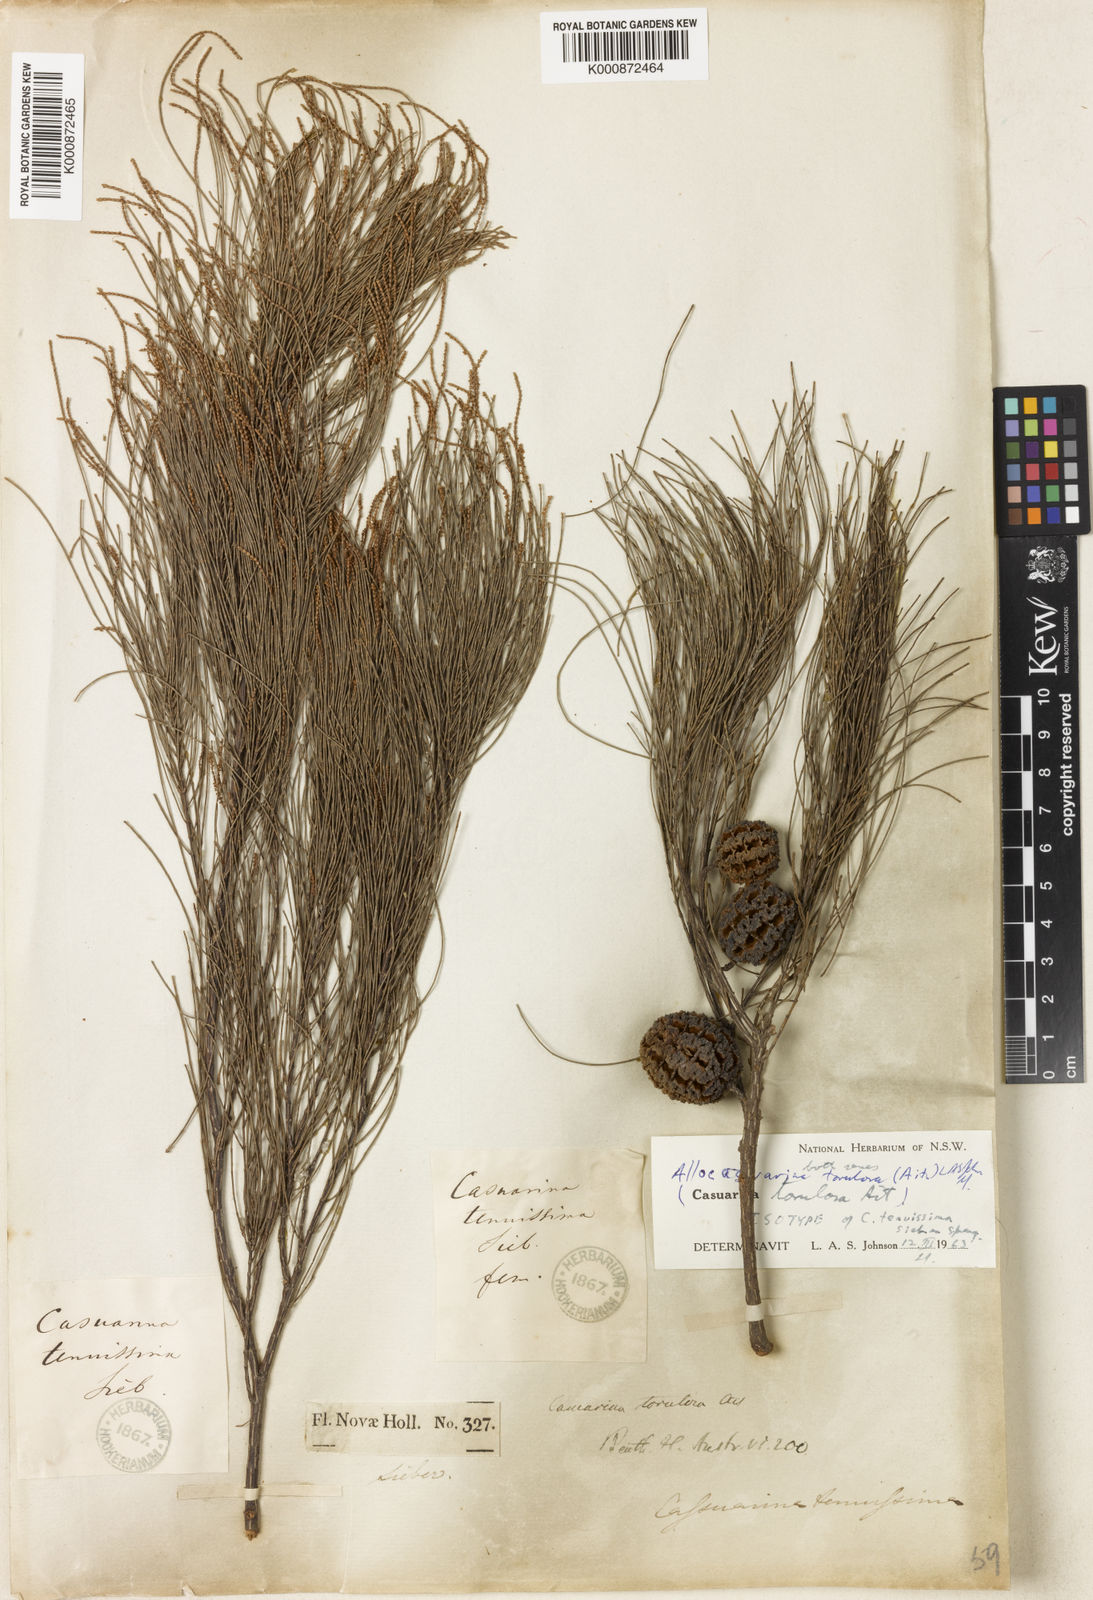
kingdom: Plantae
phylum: Tracheophyta
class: Magnoliopsida
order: Fagales
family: Casuarinaceae
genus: Allocasuarina
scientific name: Allocasuarina torulosa
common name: Forest-oak
